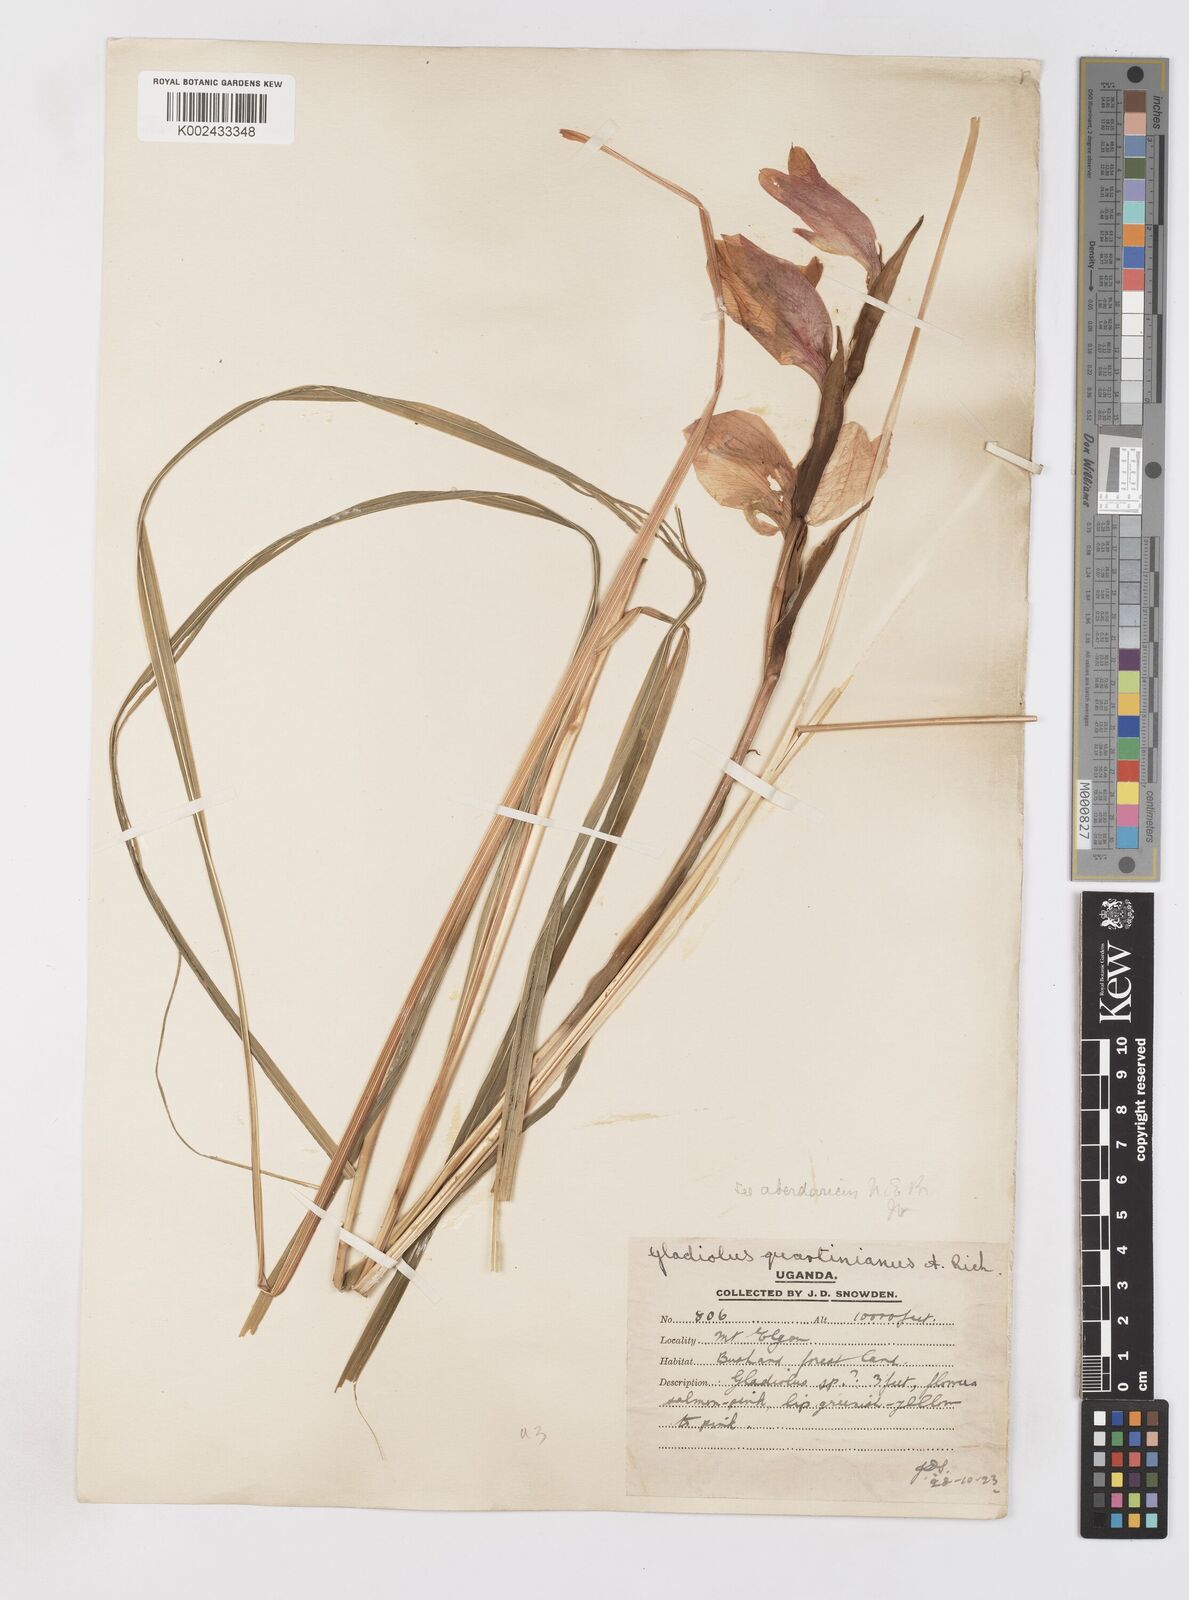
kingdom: Plantae
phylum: Tracheophyta
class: Liliopsida
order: Asparagales
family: Iridaceae
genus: Gladiolus
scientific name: Gladiolus dalenii
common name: Cornflag
